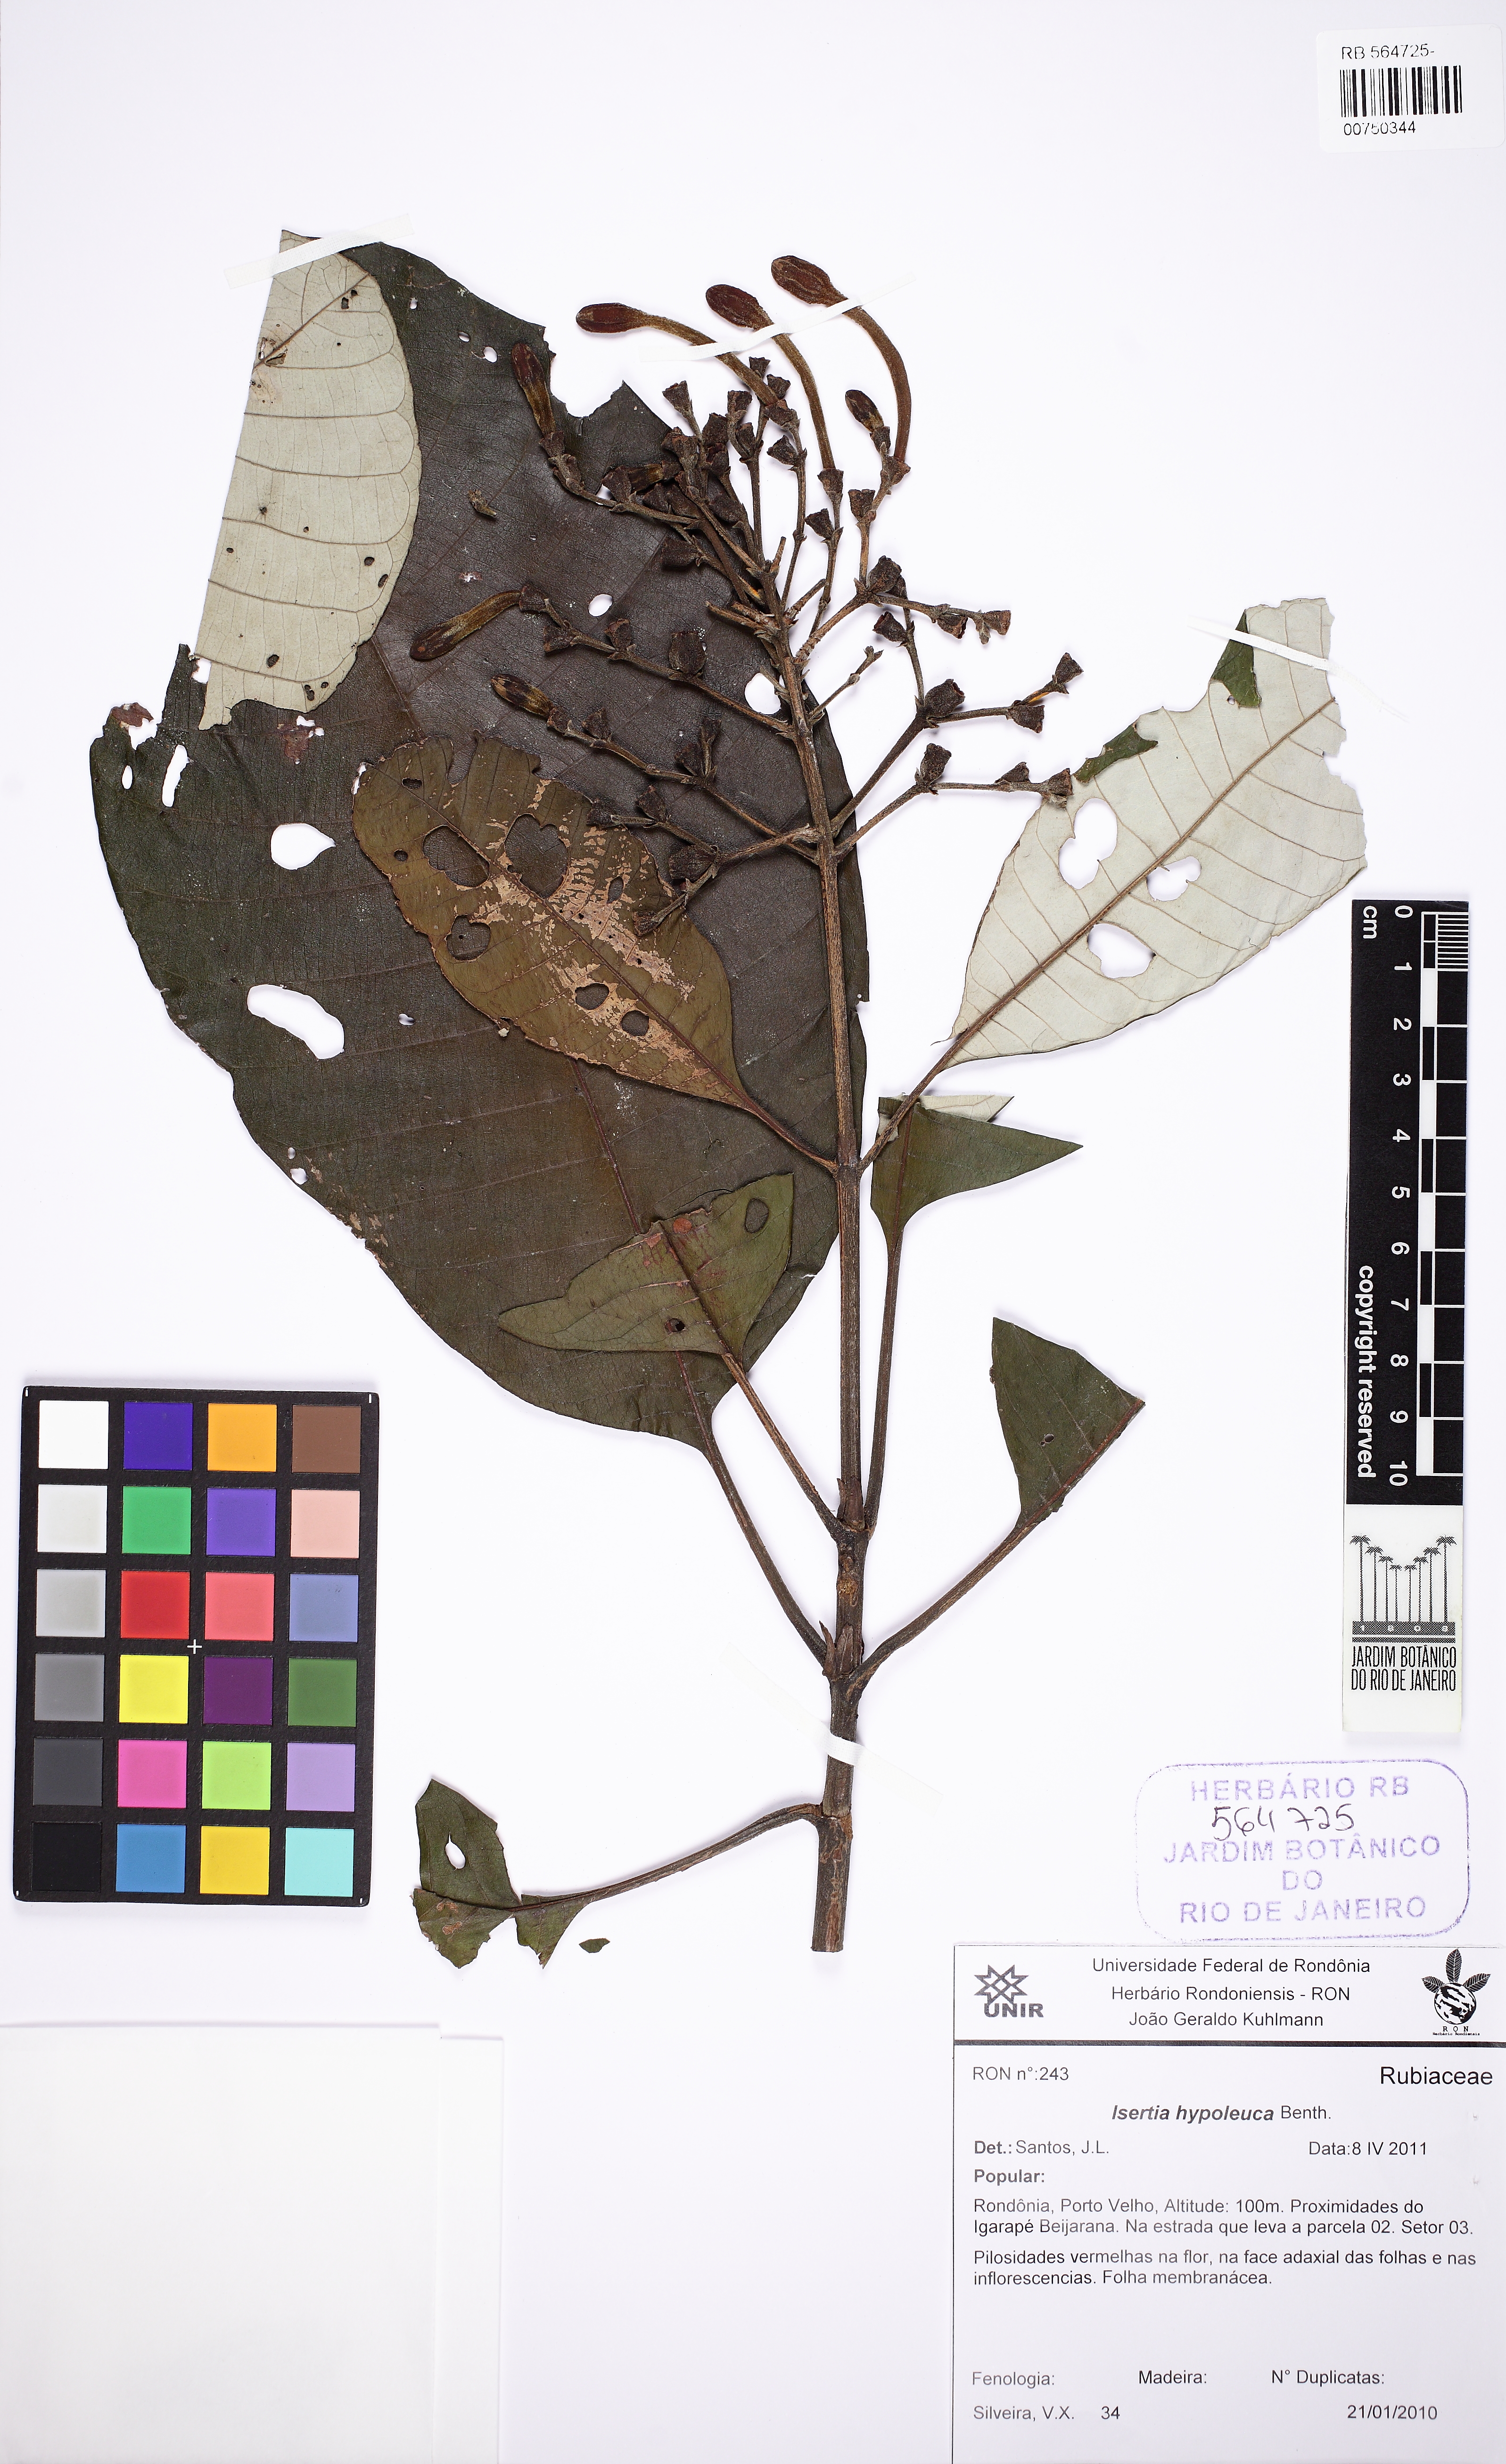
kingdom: Plantae
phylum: Tracheophyta
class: Magnoliopsida
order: Gentianales
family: Rubiaceae
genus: Isertia
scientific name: Isertia hypoleuca
